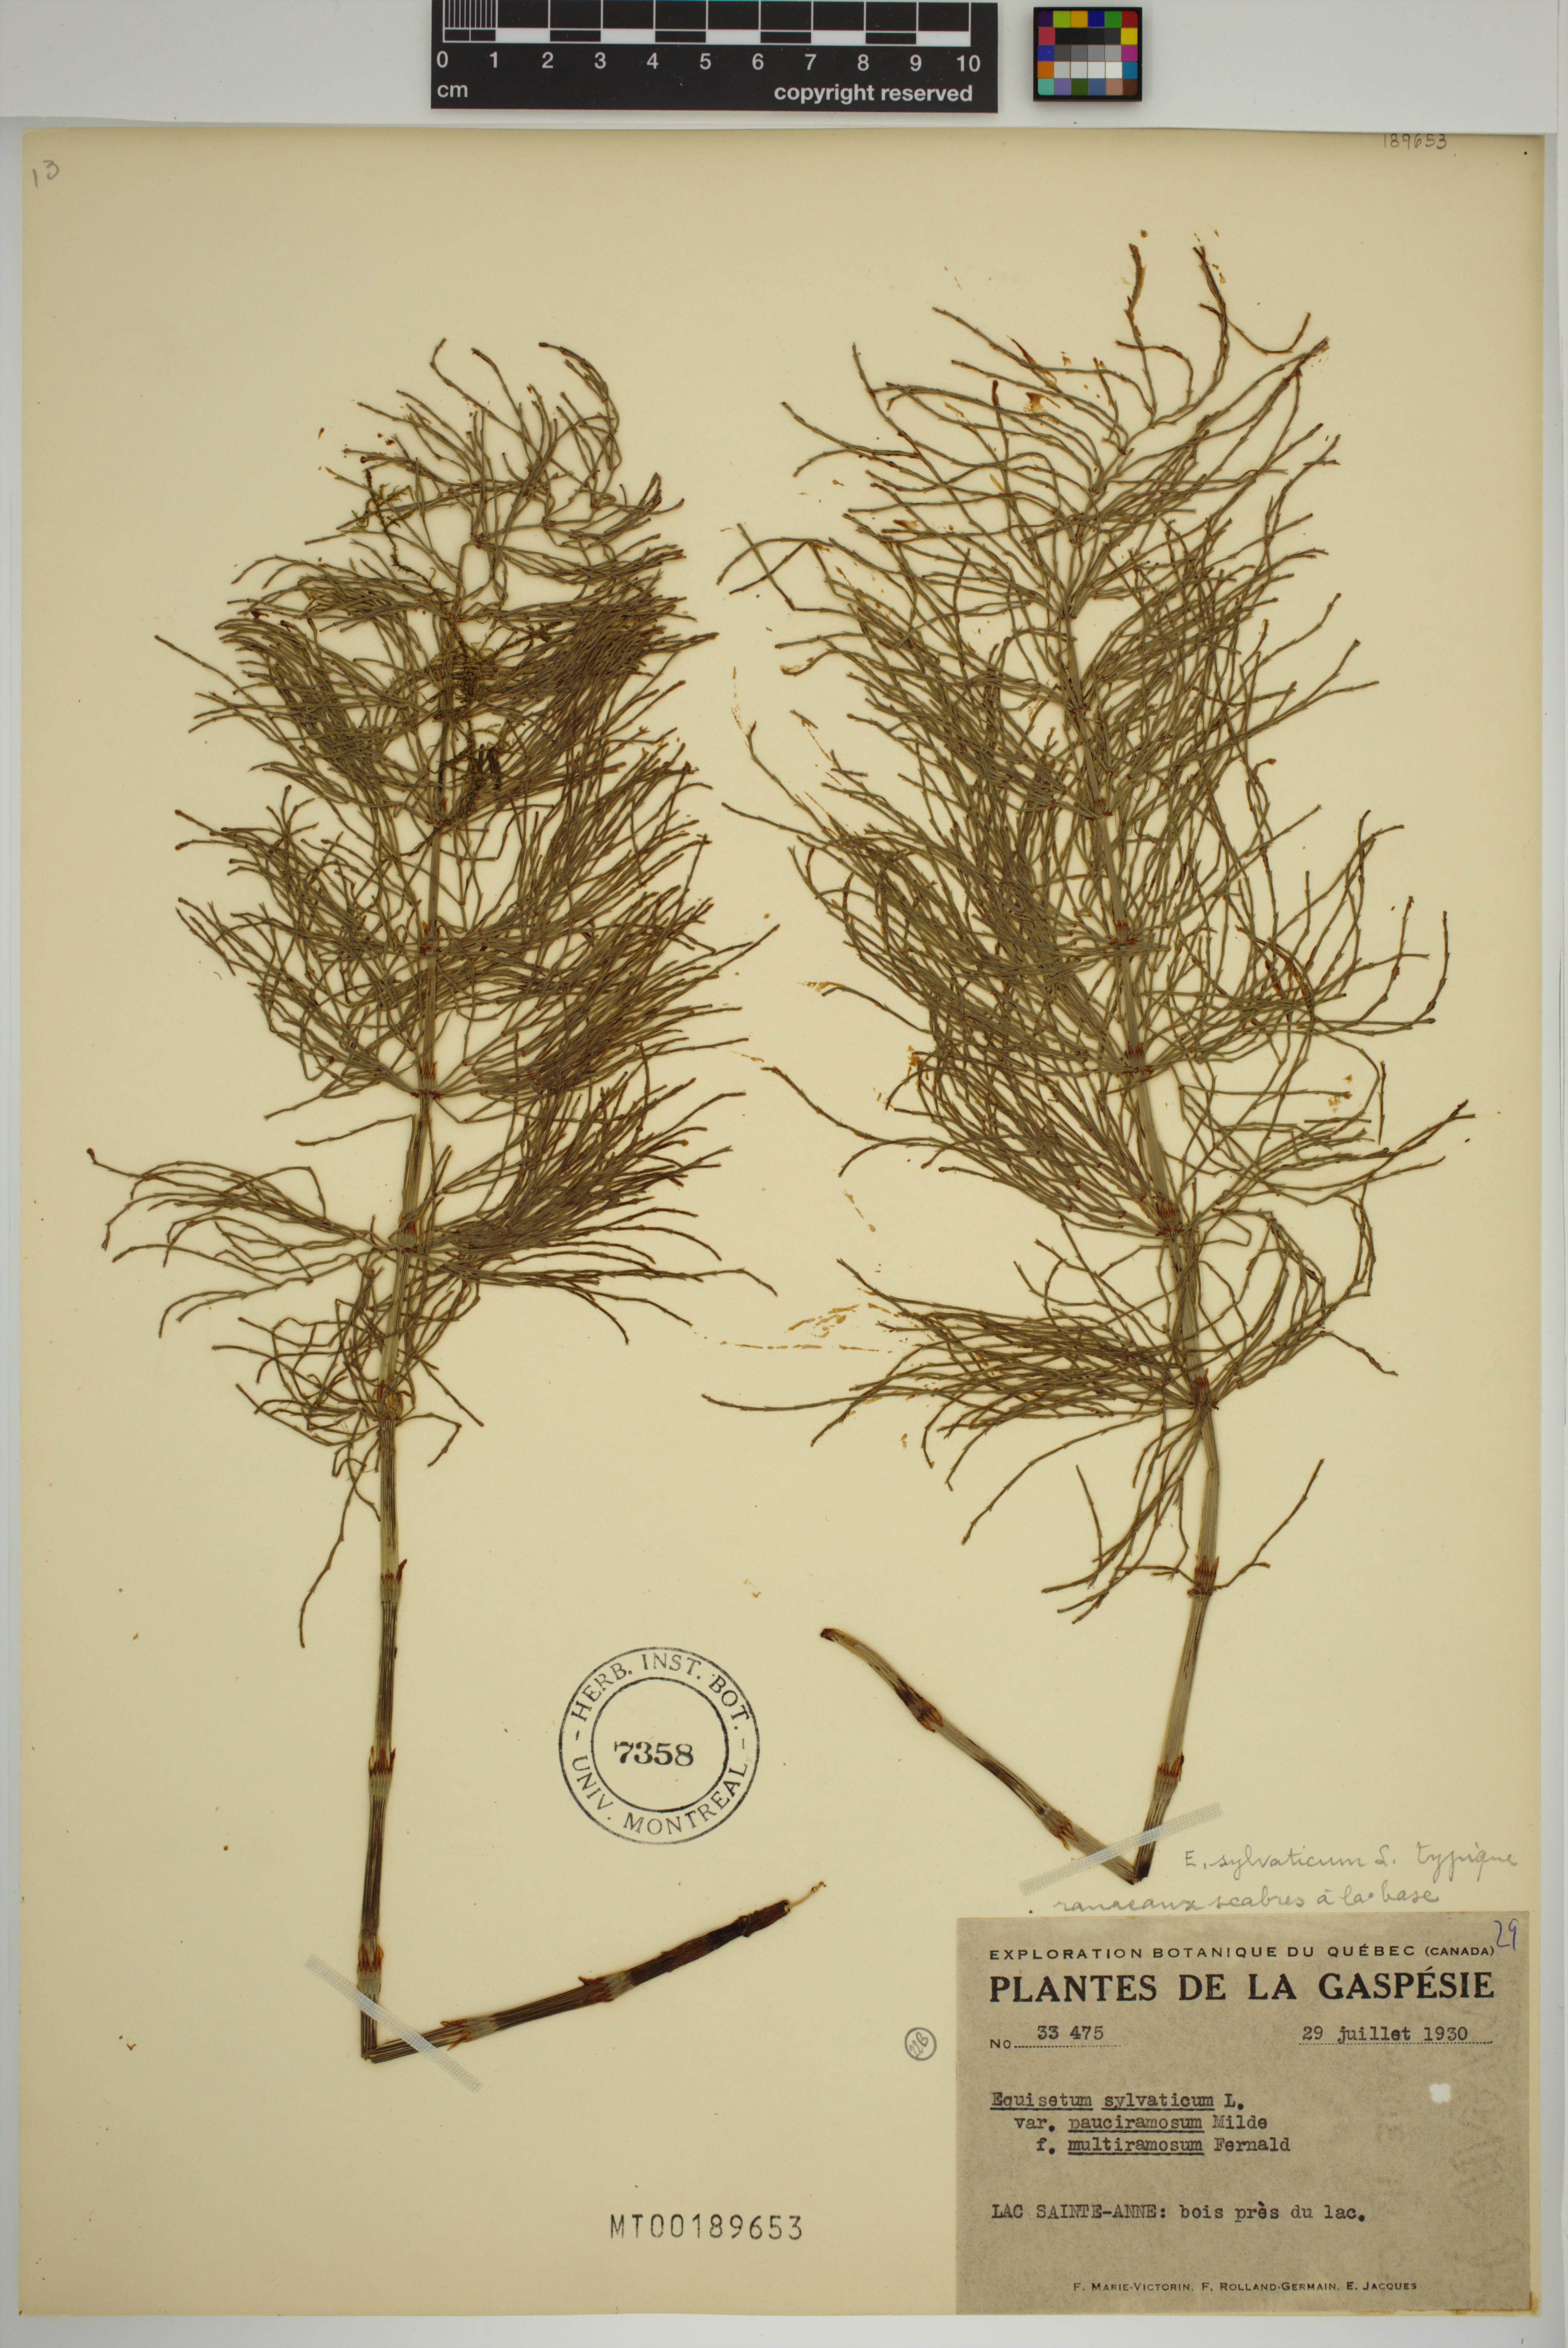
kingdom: Plantae
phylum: Tracheophyta
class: Polypodiopsida
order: Equisetales
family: Equisetaceae
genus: Equisetum
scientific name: Equisetum sylvaticum
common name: Wood horsetail
